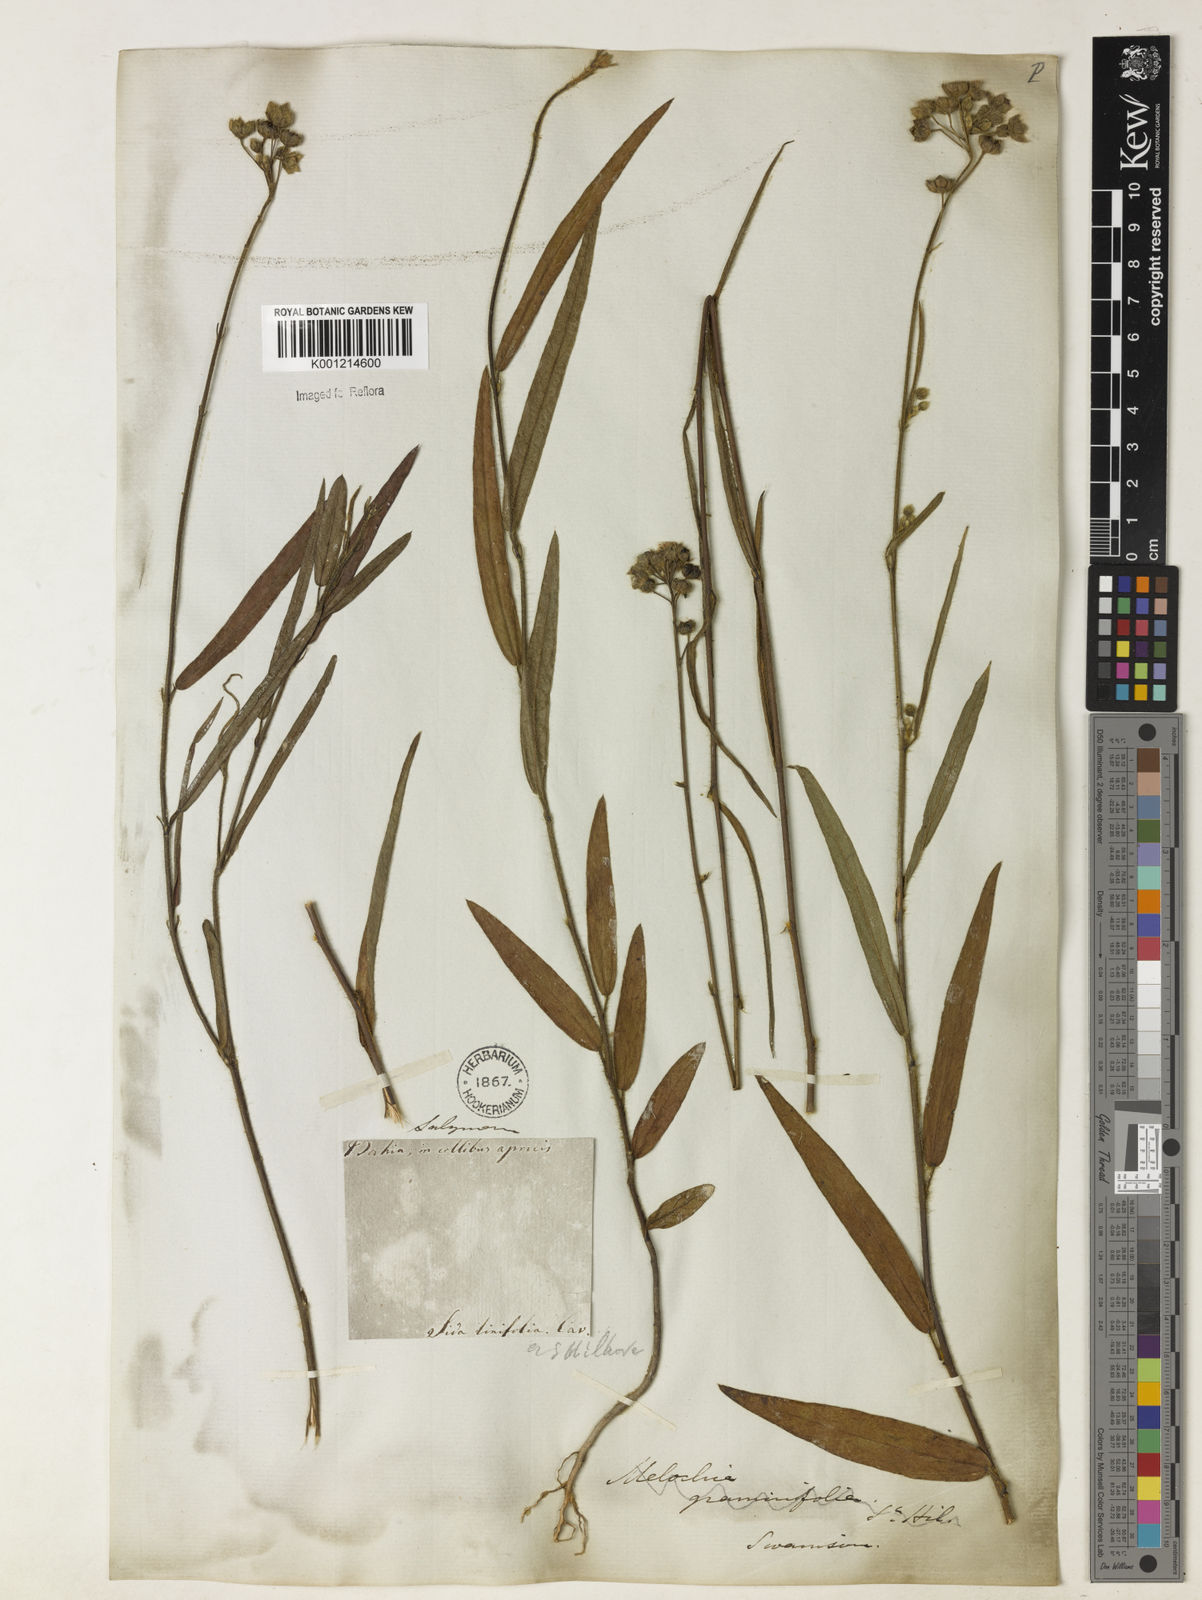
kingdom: Plantae
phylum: Tracheophyta
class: Magnoliopsida
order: Malvales
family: Malvaceae
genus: Sida
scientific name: Sida linifolia
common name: Flaxleaf fanpetals
